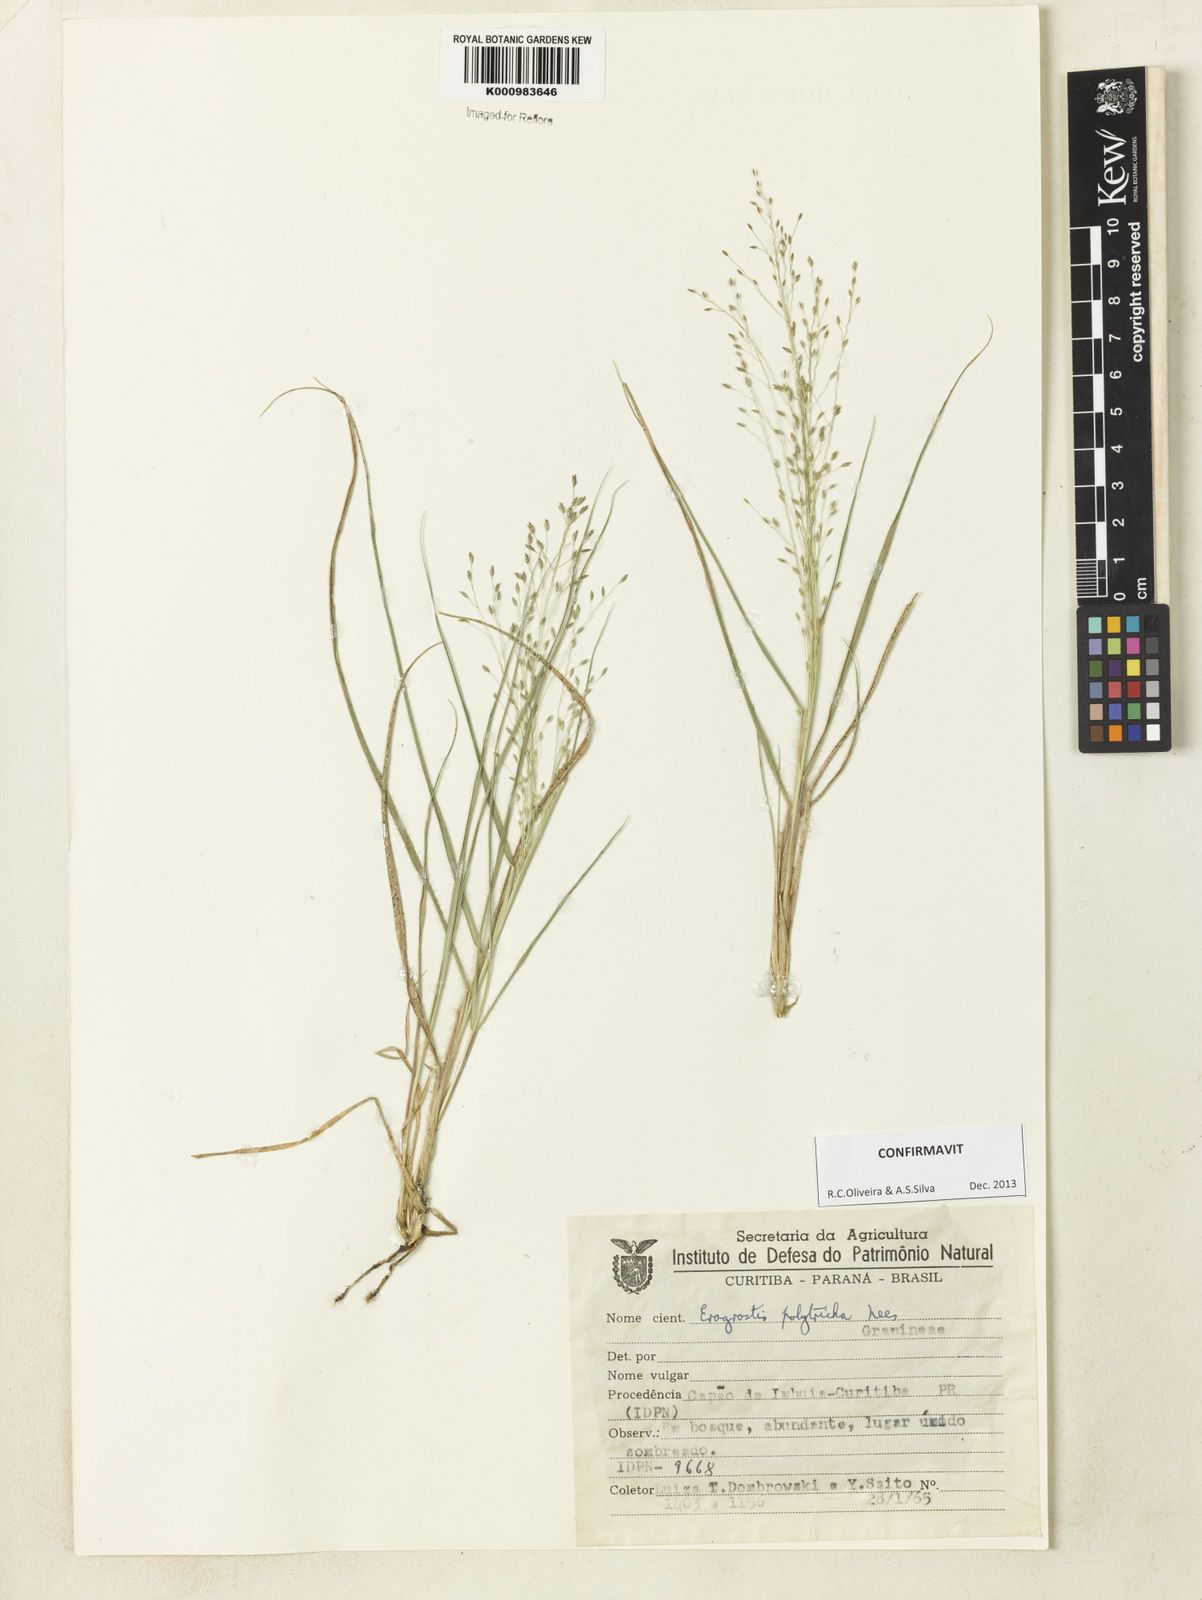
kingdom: Plantae
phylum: Tracheophyta
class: Liliopsida
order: Poales
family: Poaceae
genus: Eragrostis
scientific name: Eragrostis polytricha
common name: Hairy-sheath love grass
